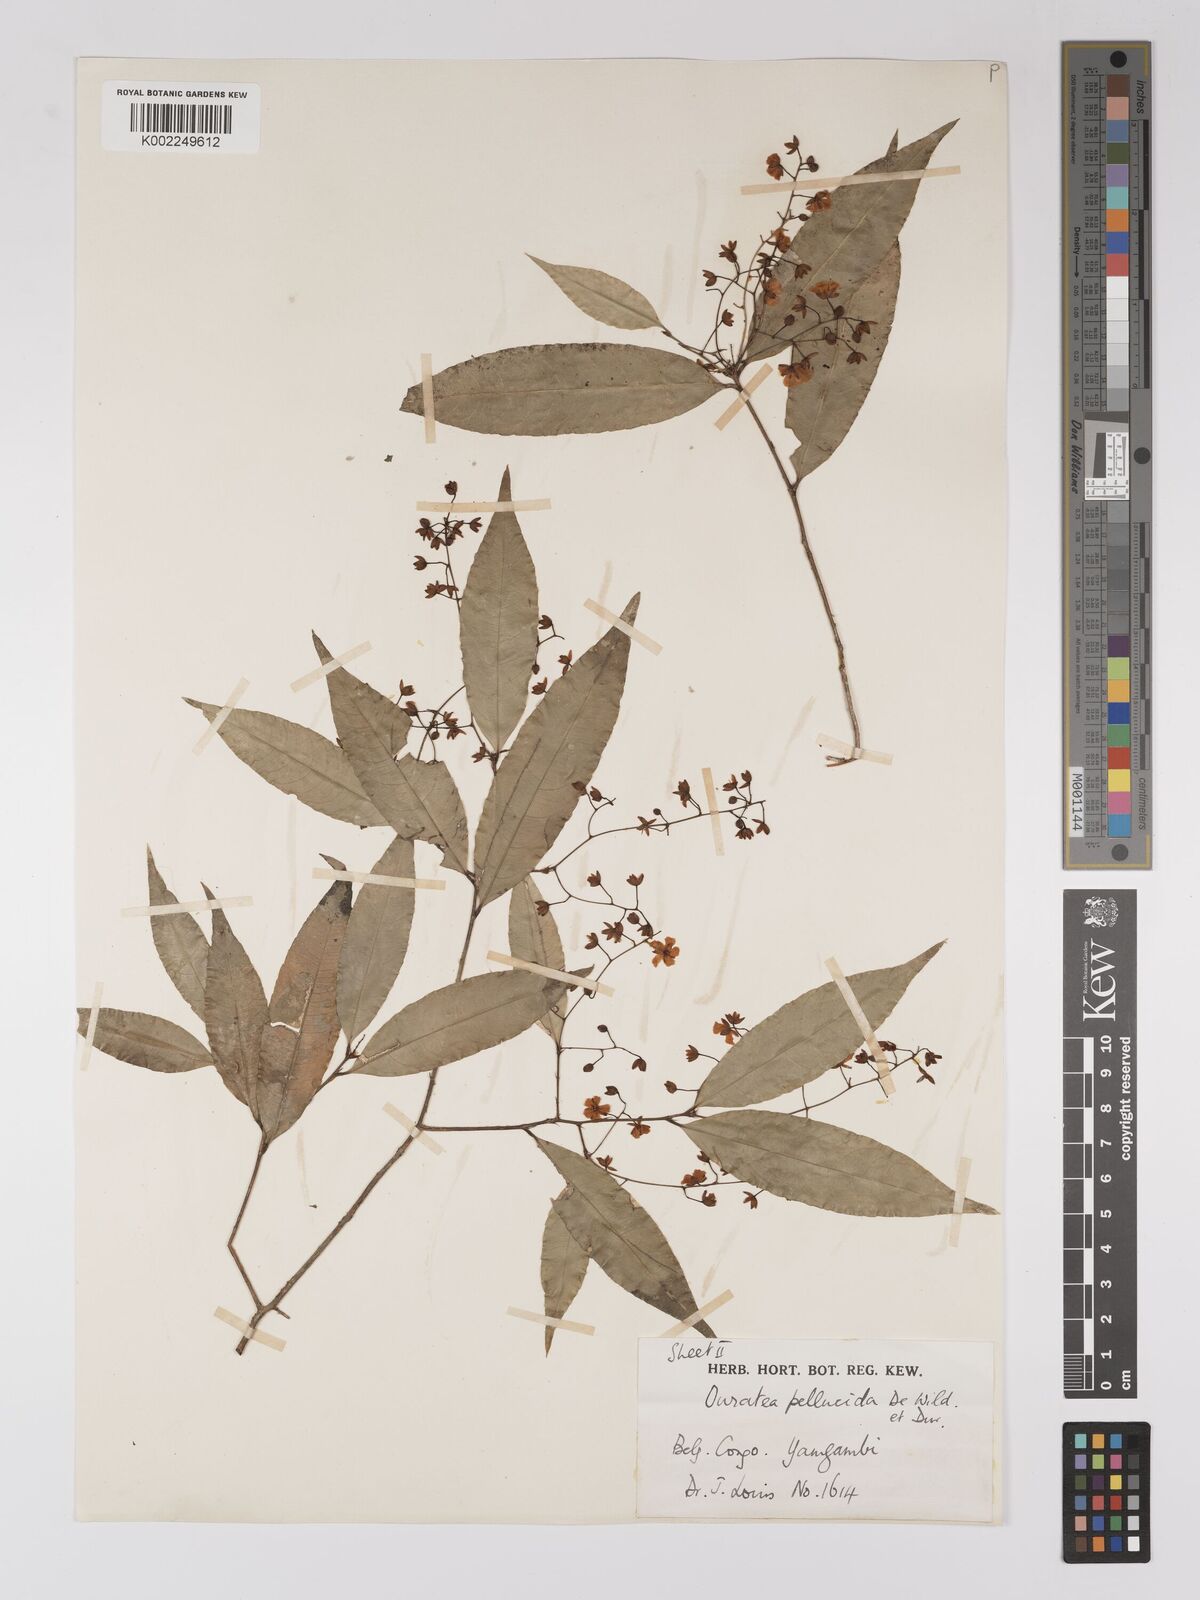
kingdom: Plantae
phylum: Tracheophyta
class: Magnoliopsida
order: Malpighiales
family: Ochnaceae
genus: Campylospermum
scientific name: Campylospermum reticulatum
